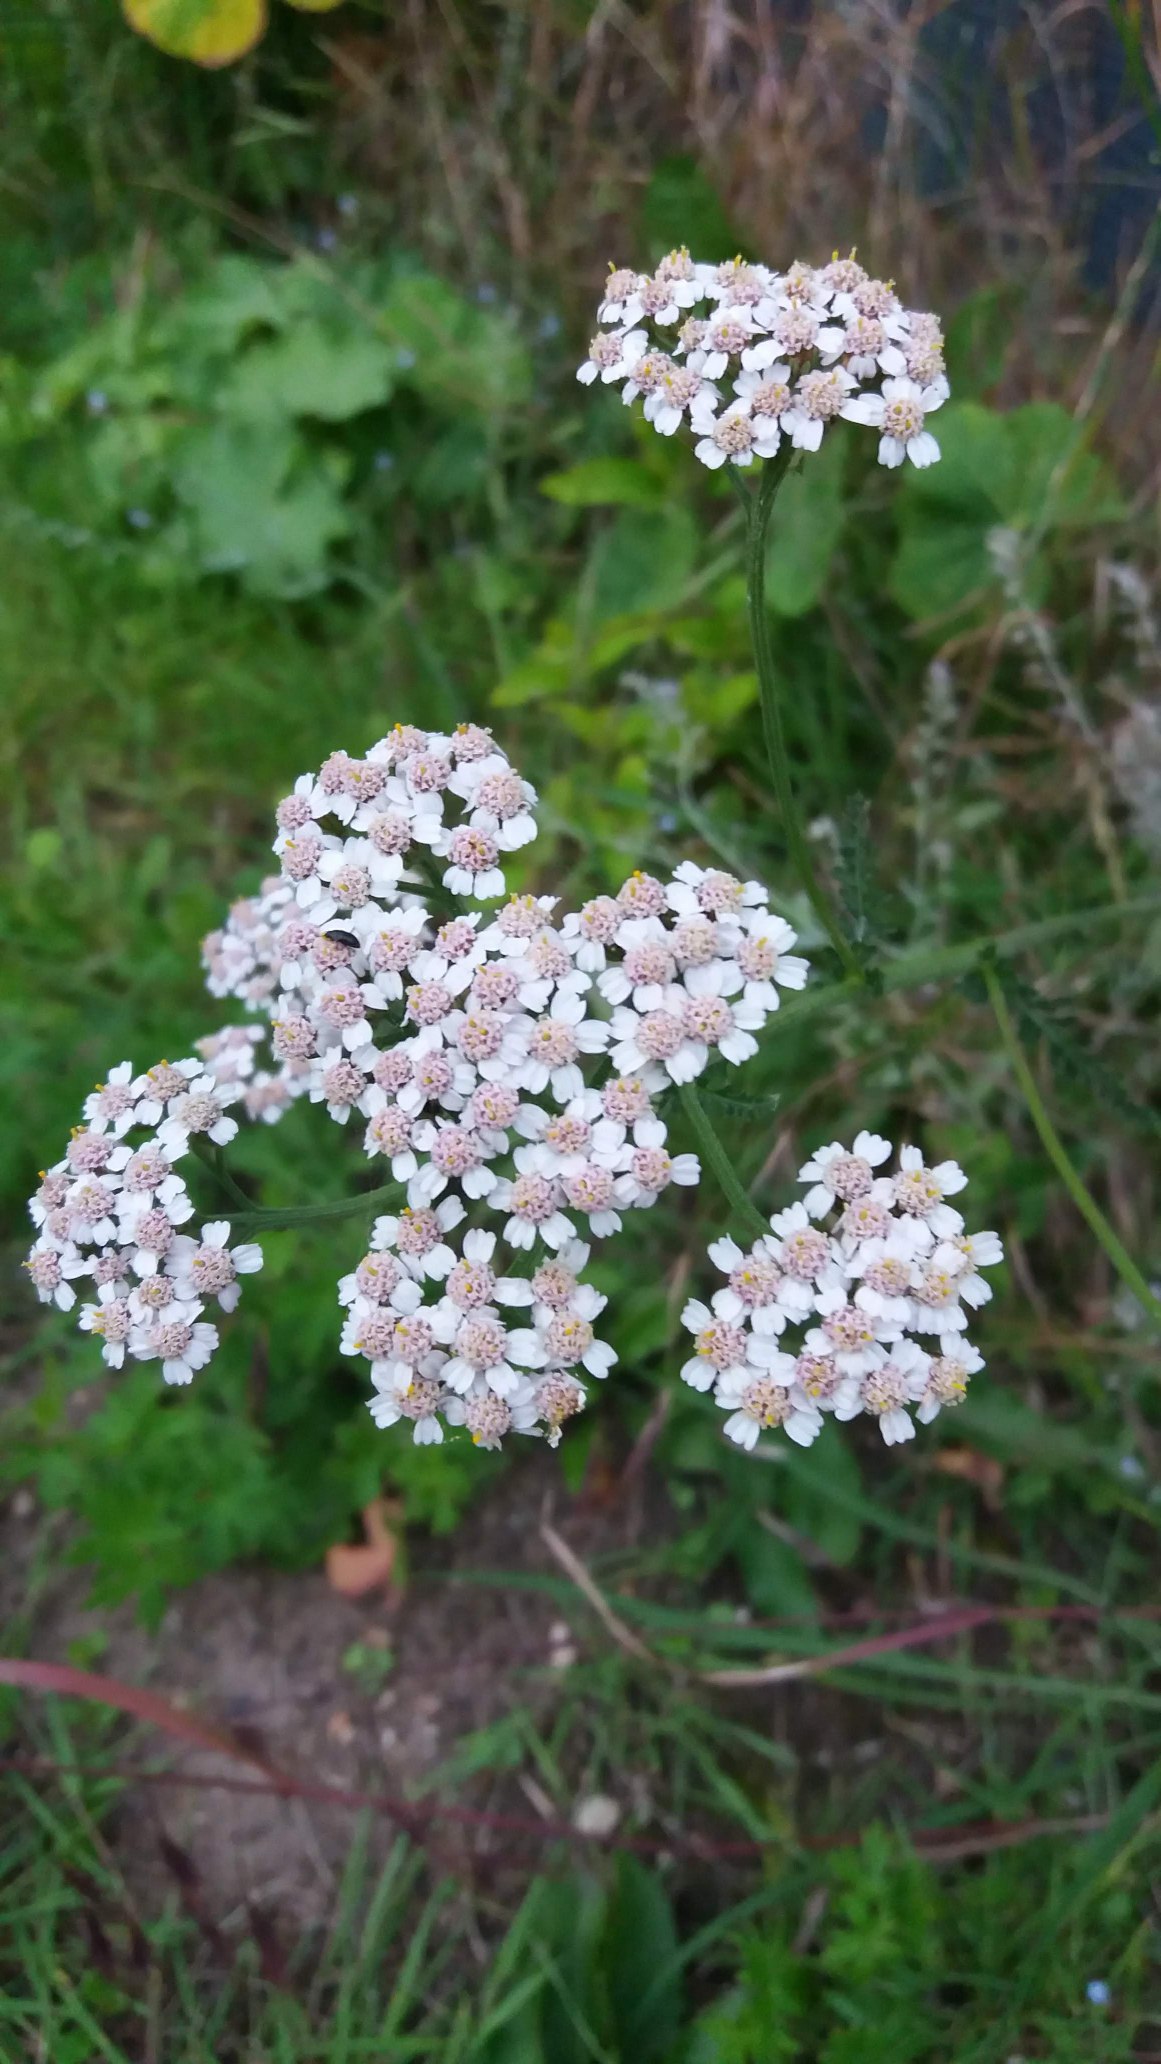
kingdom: Plantae
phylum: Tracheophyta
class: Magnoliopsida
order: Asterales
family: Asteraceae
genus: Achillea
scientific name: Achillea millefolium
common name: Almindelig røllike
